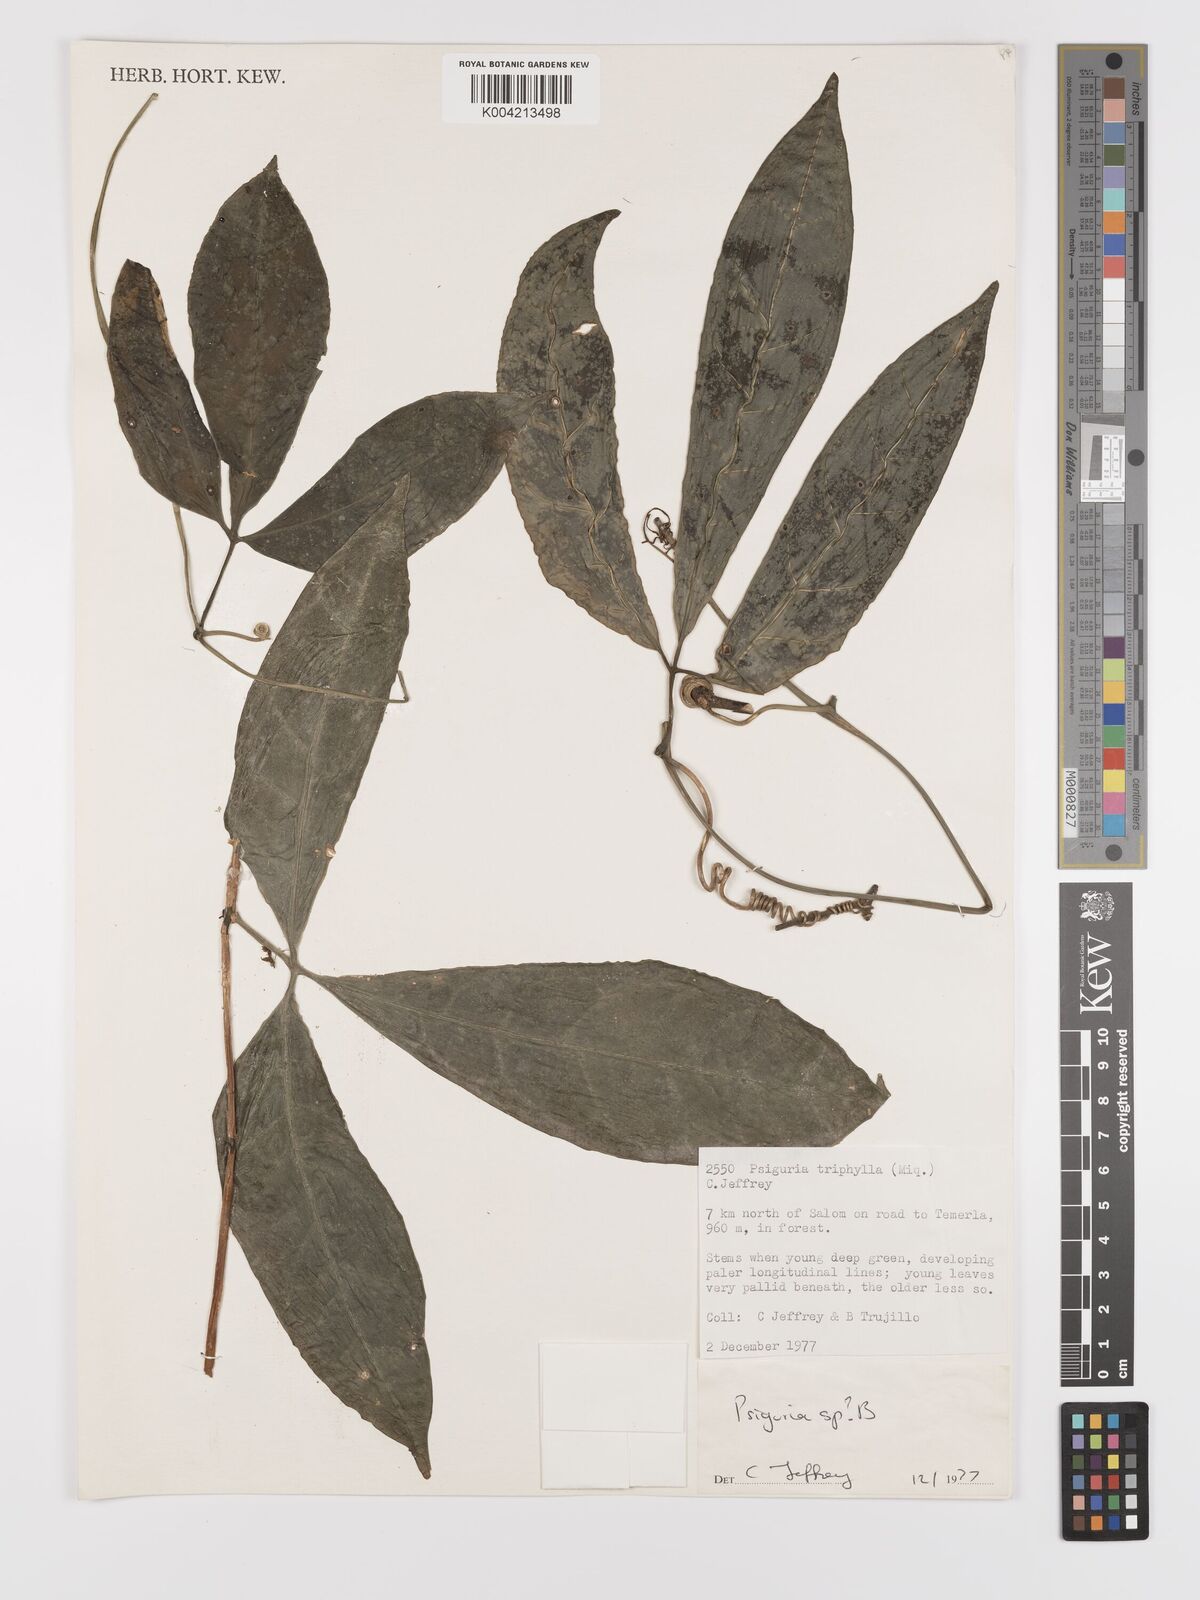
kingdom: Plantae
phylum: Tracheophyta
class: Magnoliopsida
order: Cucurbitales
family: Cucurbitaceae
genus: Psiguria
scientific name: Psiguria
